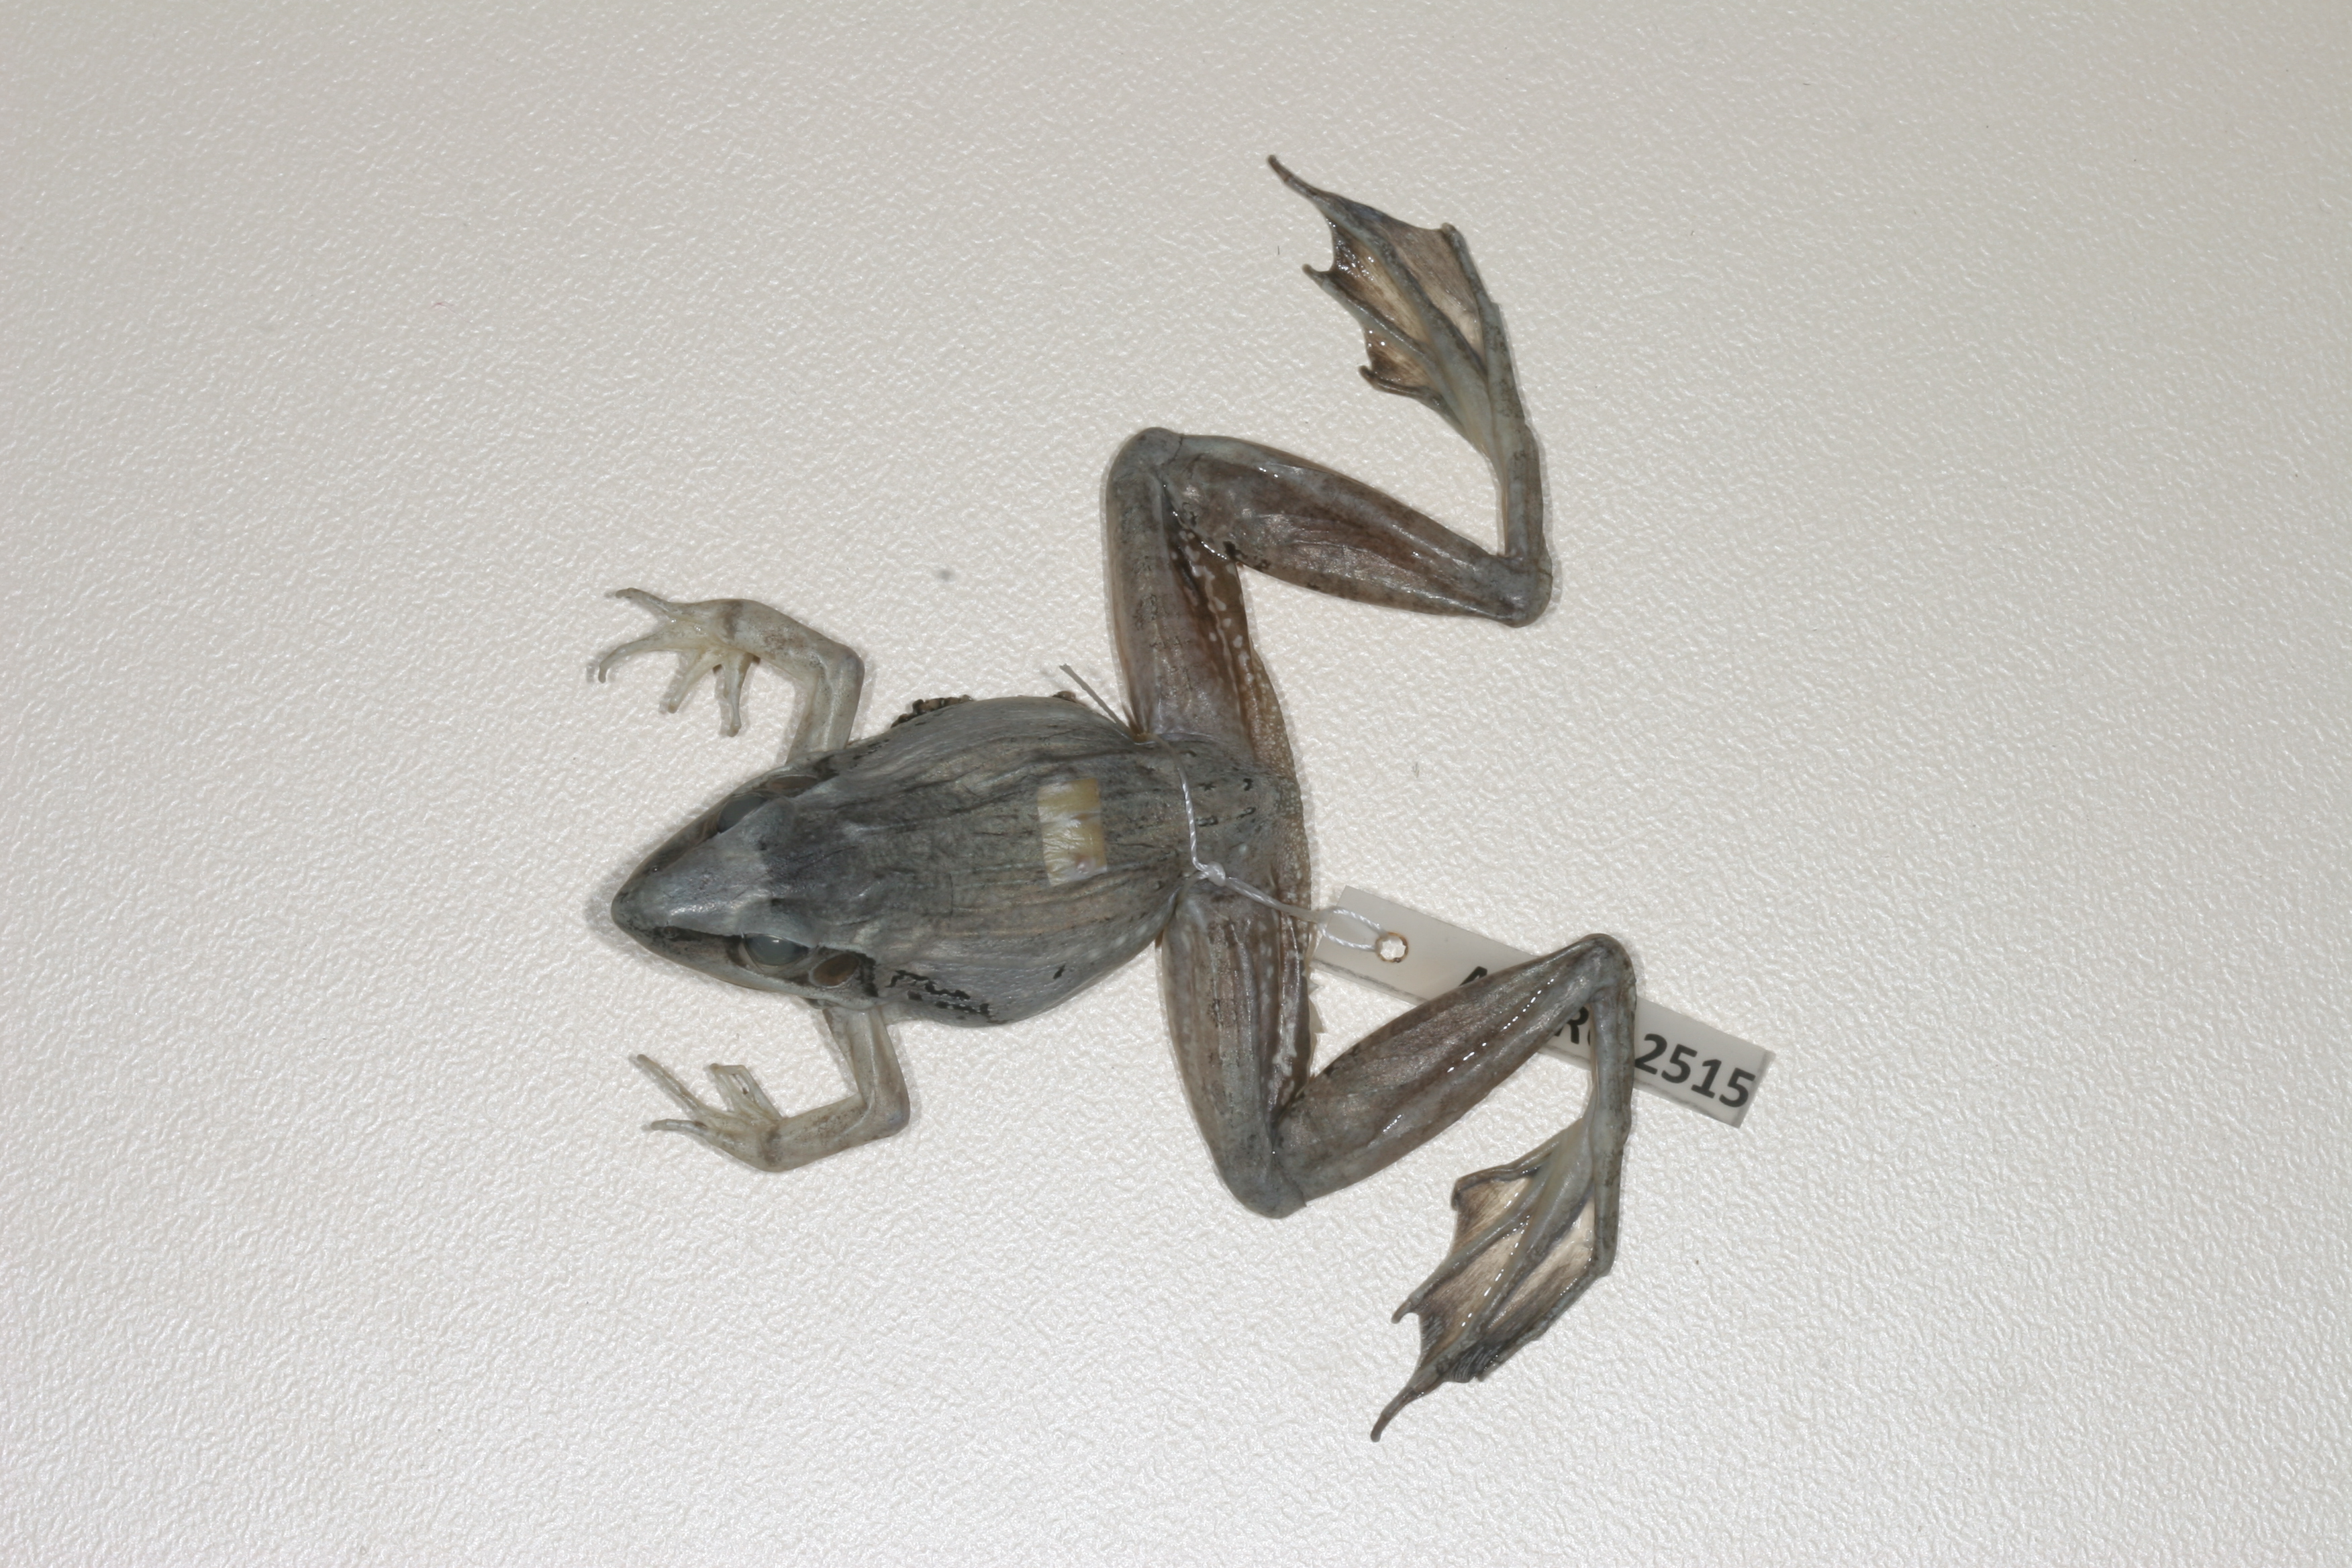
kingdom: Animalia
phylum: Chordata
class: Amphibia
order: Anura
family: Ptychadenidae
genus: Ptychadena
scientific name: Ptychadena anchietae
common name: Anchieta's ridged frog
